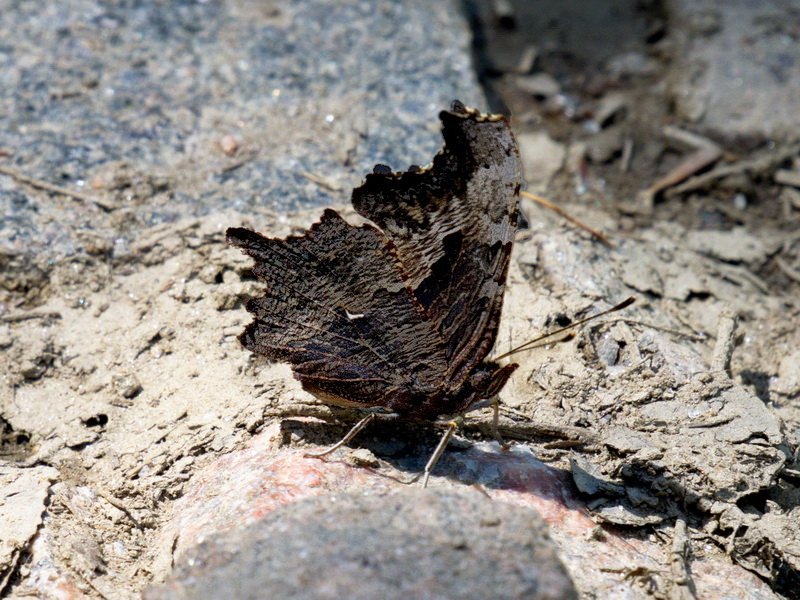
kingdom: Animalia
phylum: Arthropoda
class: Insecta
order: Lepidoptera
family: Nymphalidae
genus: Polygonia
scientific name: Polygonia progne
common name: Gray Comma
